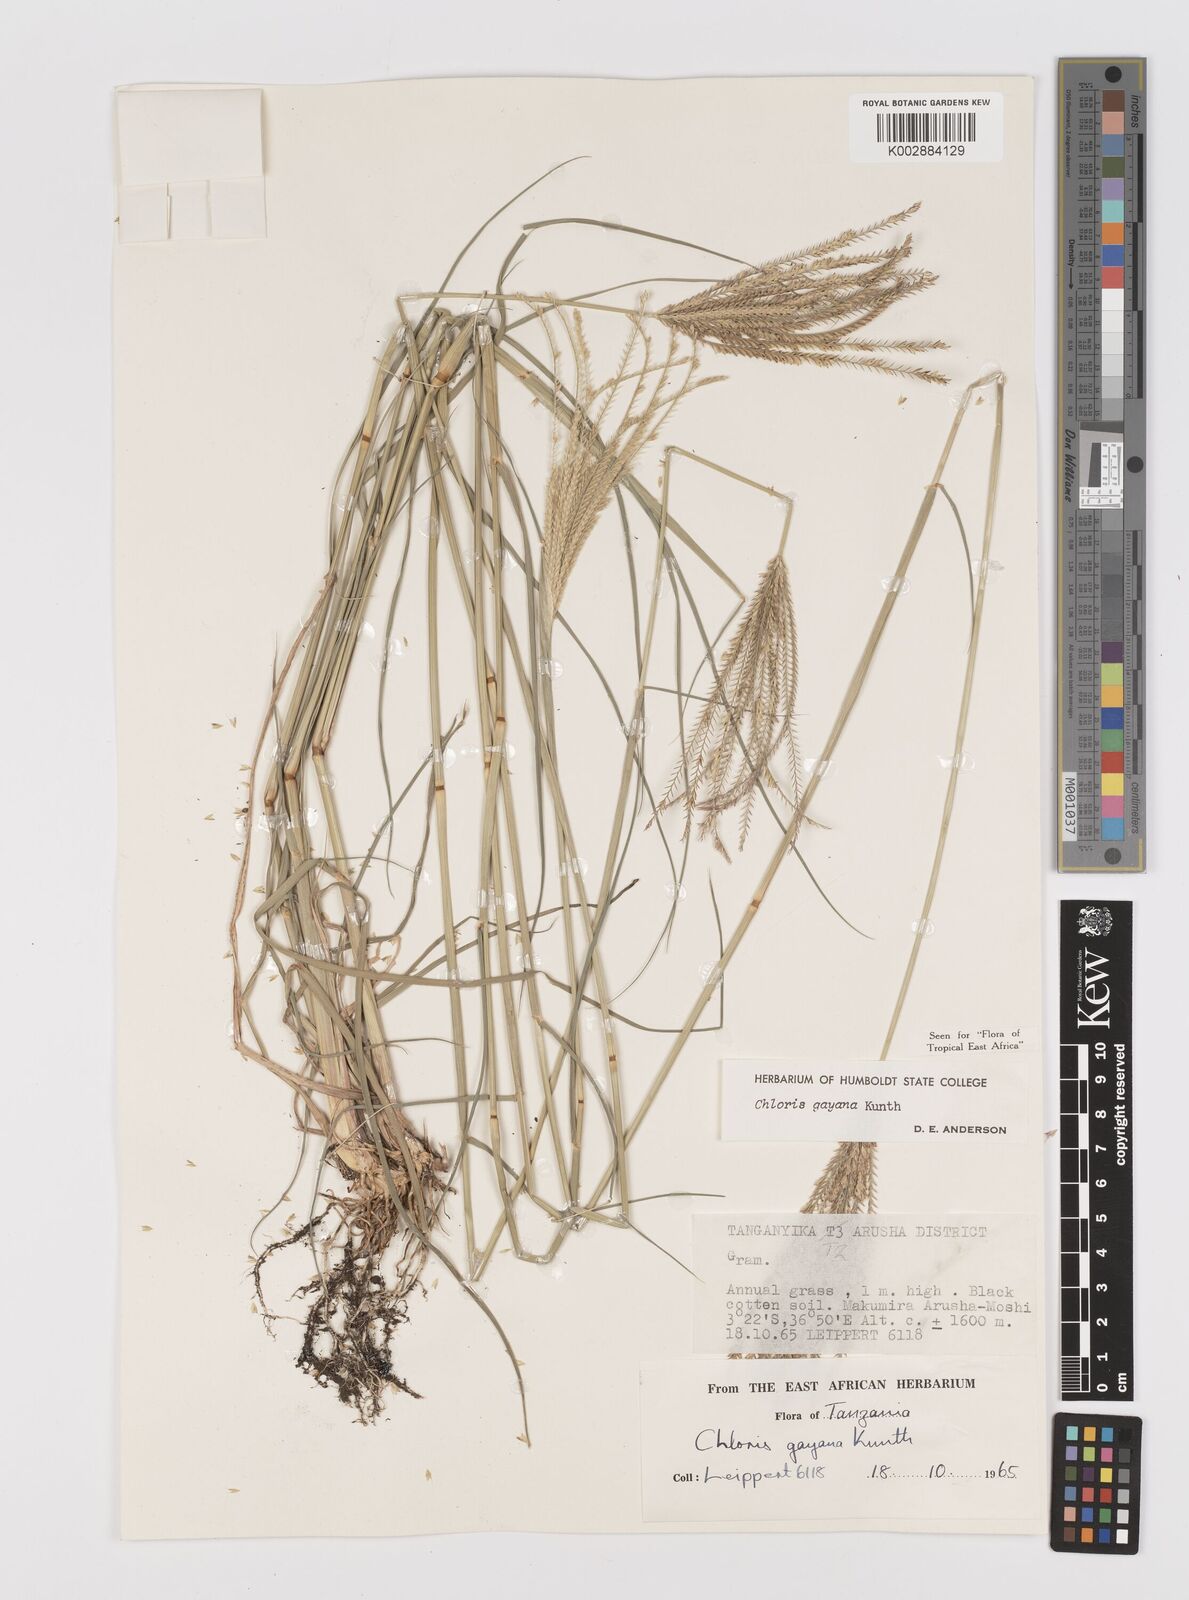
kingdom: Plantae
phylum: Tracheophyta
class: Liliopsida
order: Poales
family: Poaceae
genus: Chloris
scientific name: Chloris gayana
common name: Rhodes grass
